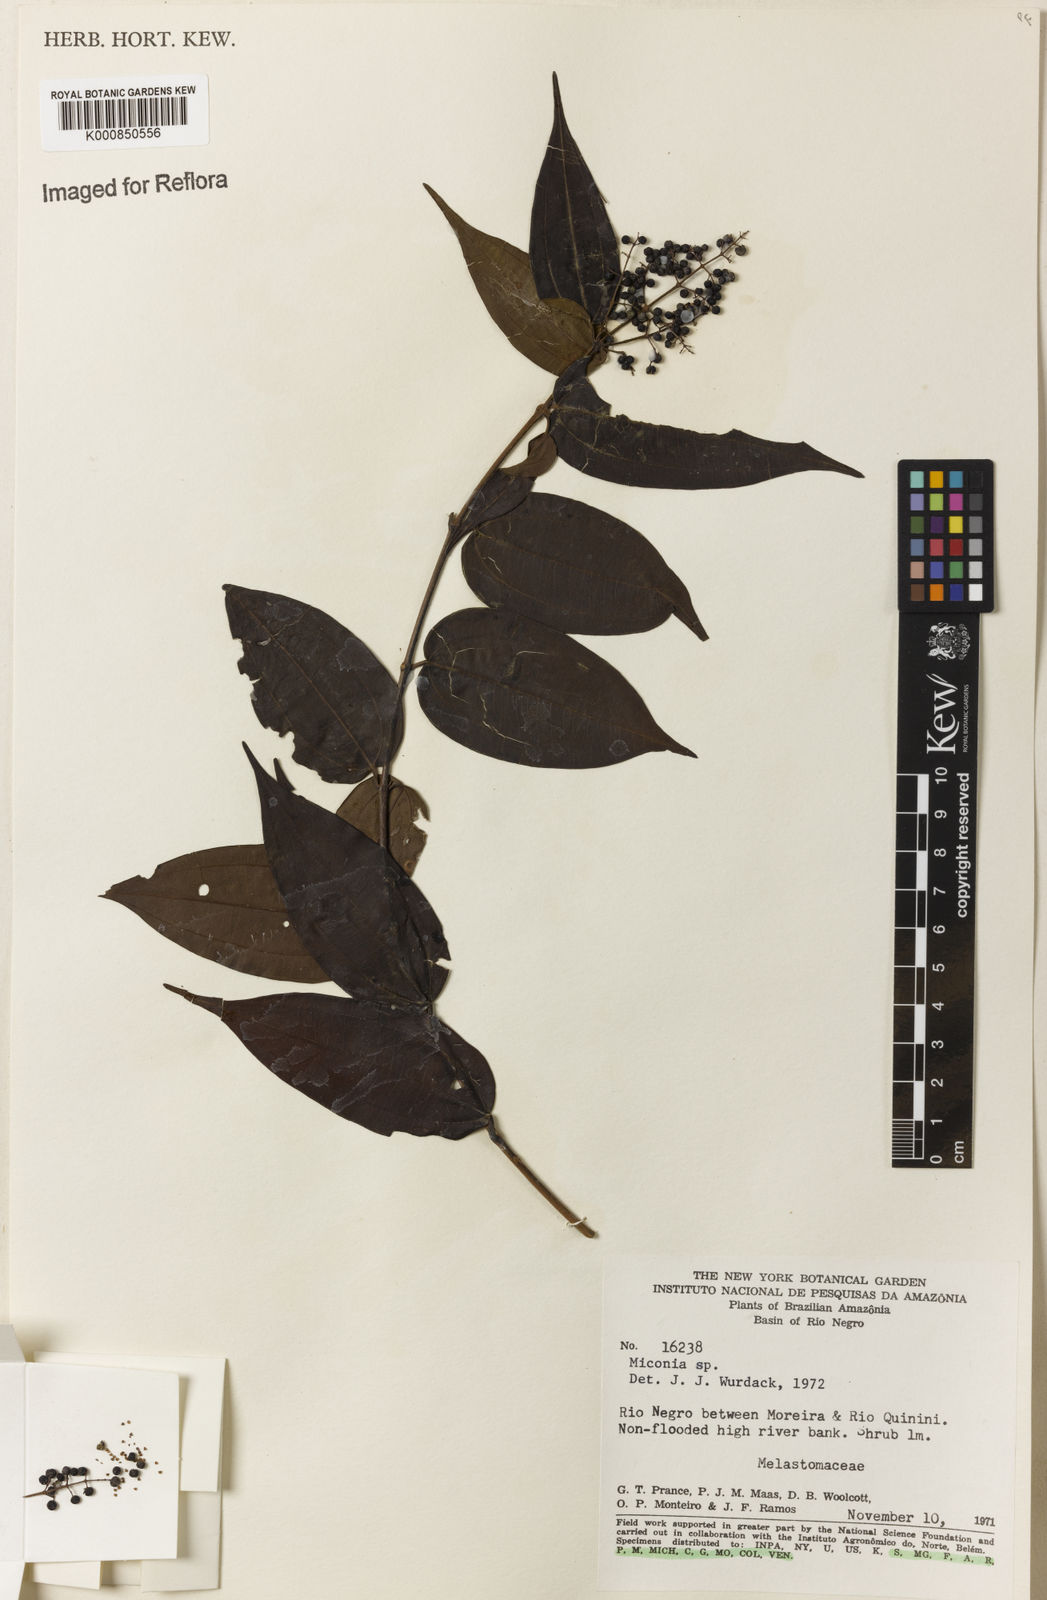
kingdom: Plantae
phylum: Tracheophyta
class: Magnoliopsida
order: Myrtales
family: Melastomataceae
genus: Miconia
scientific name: Miconia
